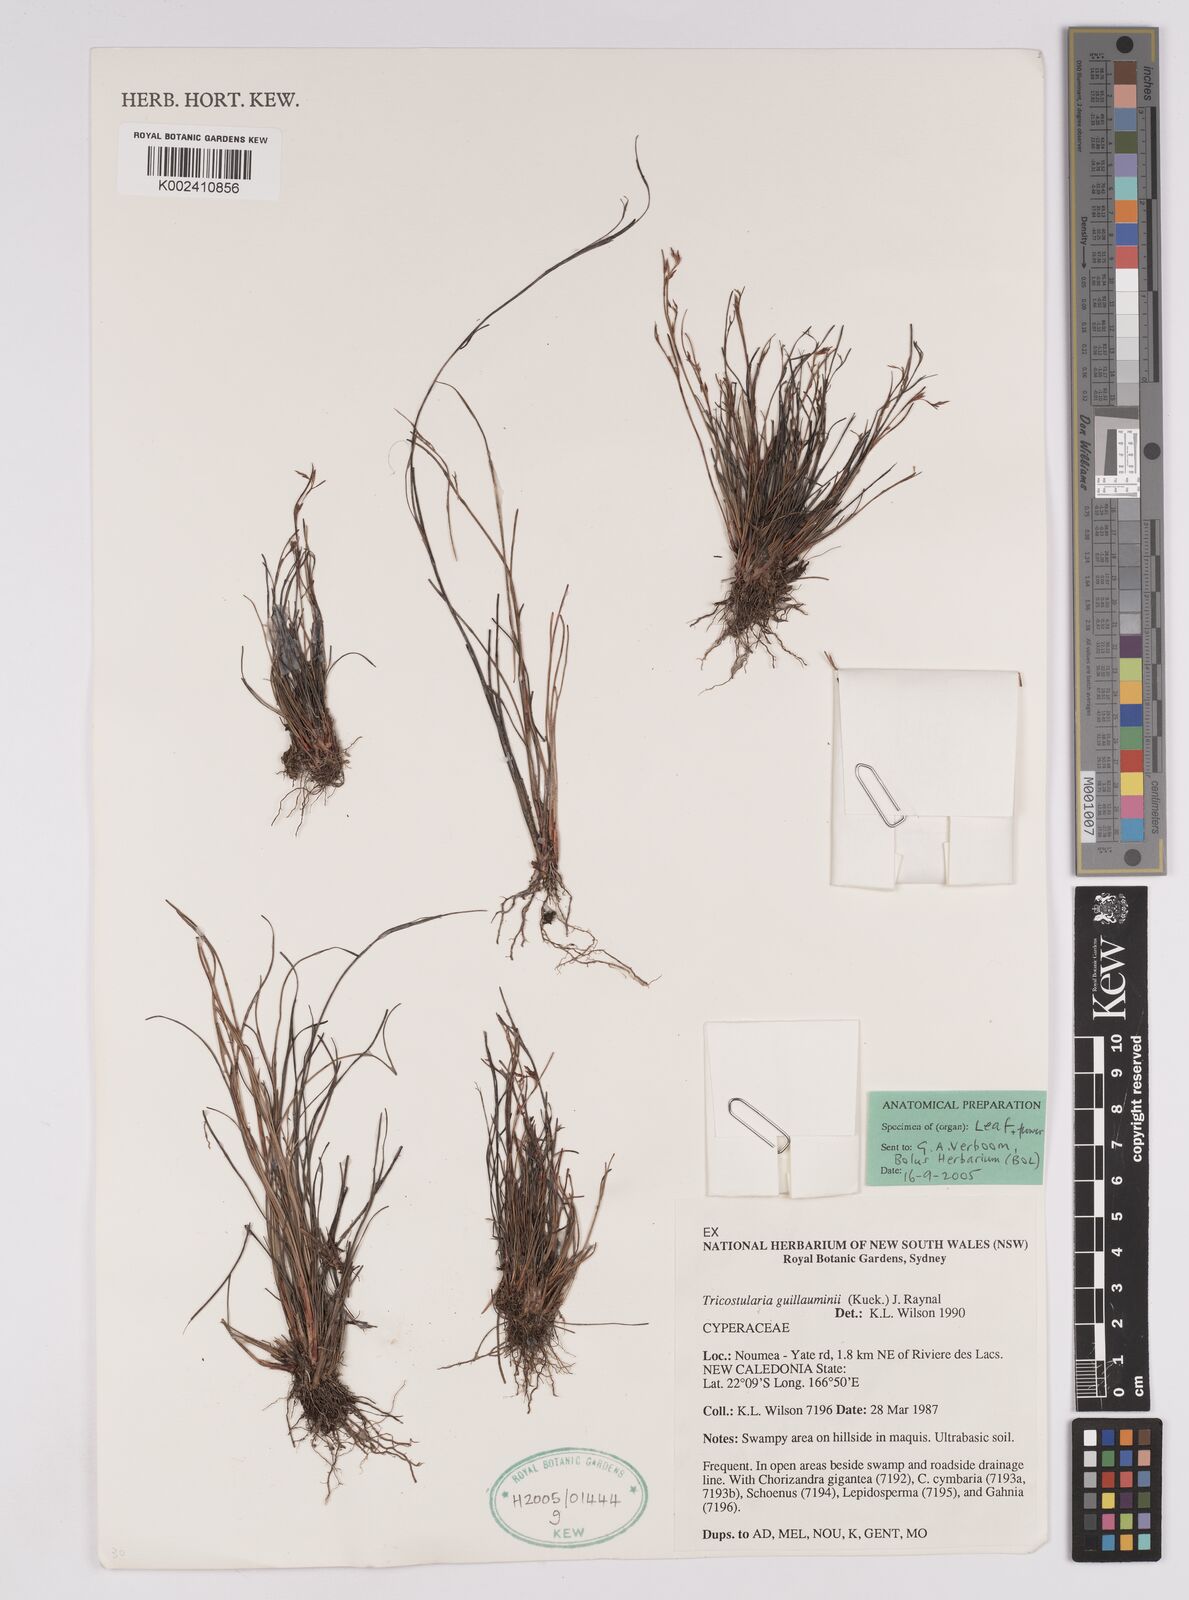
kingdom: Plantae
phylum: Tracheophyta
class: Liliopsida
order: Poales
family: Cyperaceae
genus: Anthelepis
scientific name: Anthelepis guillauminii
